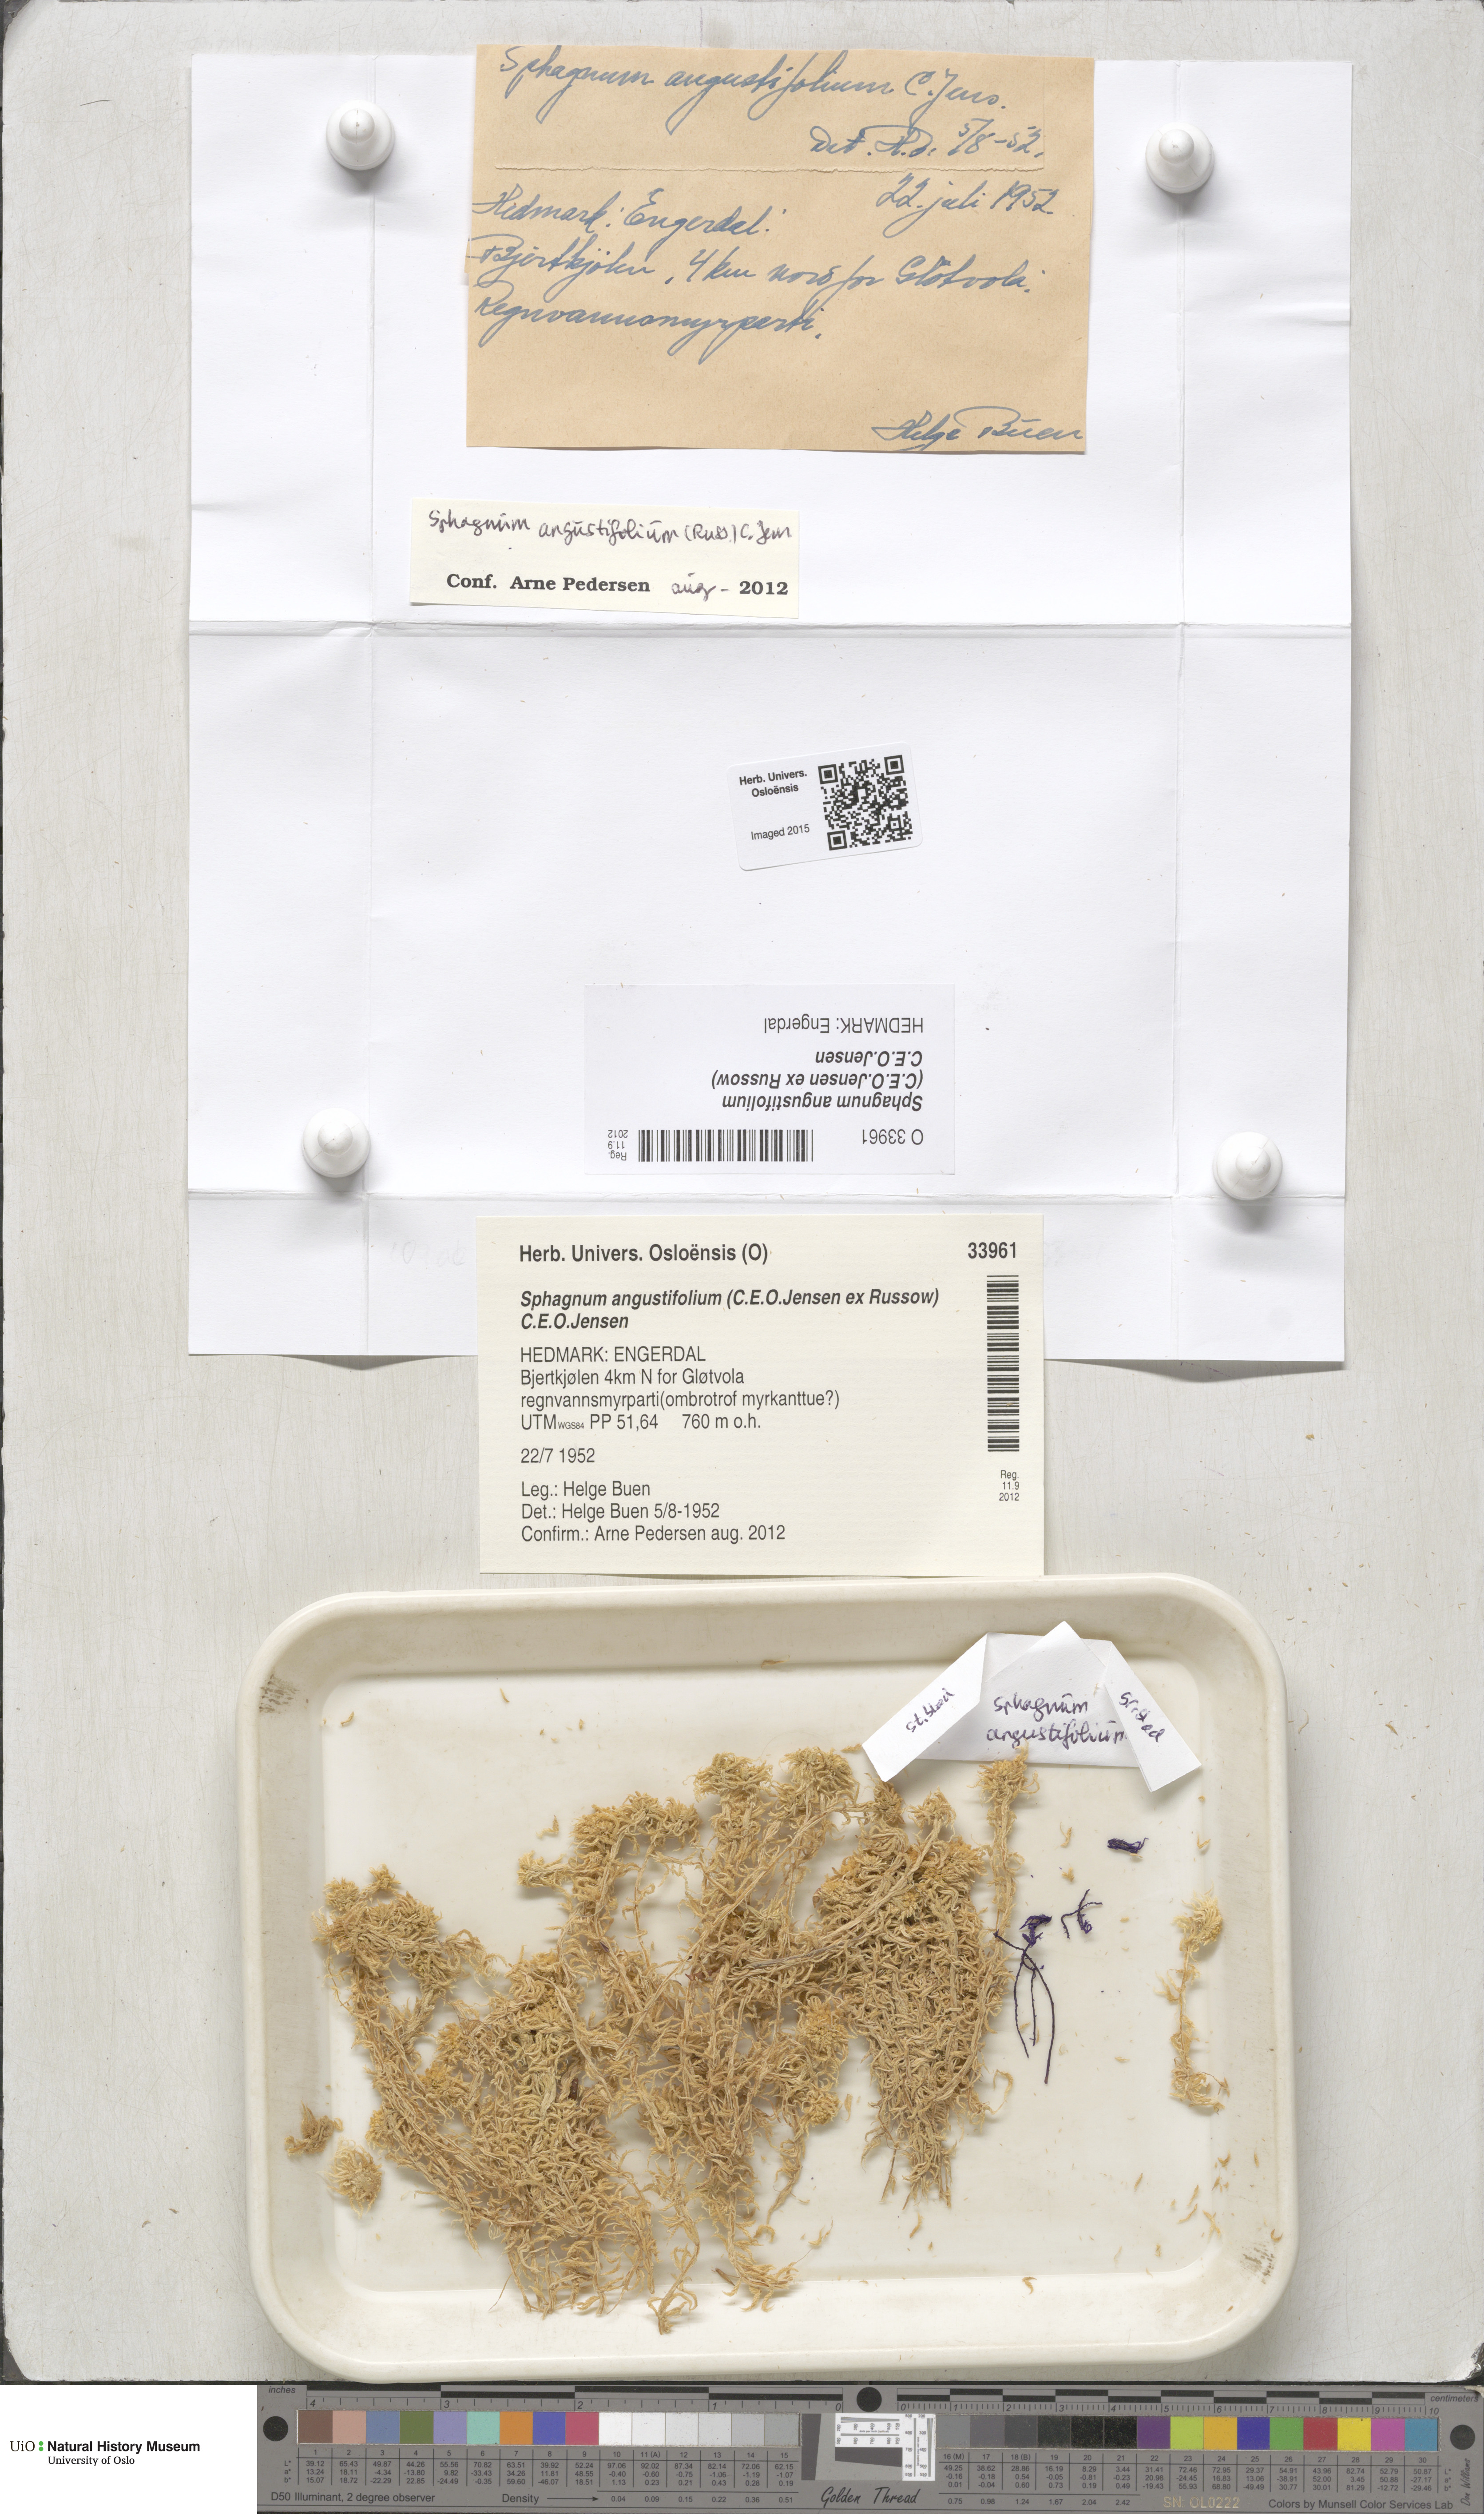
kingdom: Plantae
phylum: Bryophyta
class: Sphagnopsida
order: Sphagnales
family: Sphagnaceae
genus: Sphagnum
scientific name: Sphagnum angustifolium
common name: Narrow-leaved peat moss
